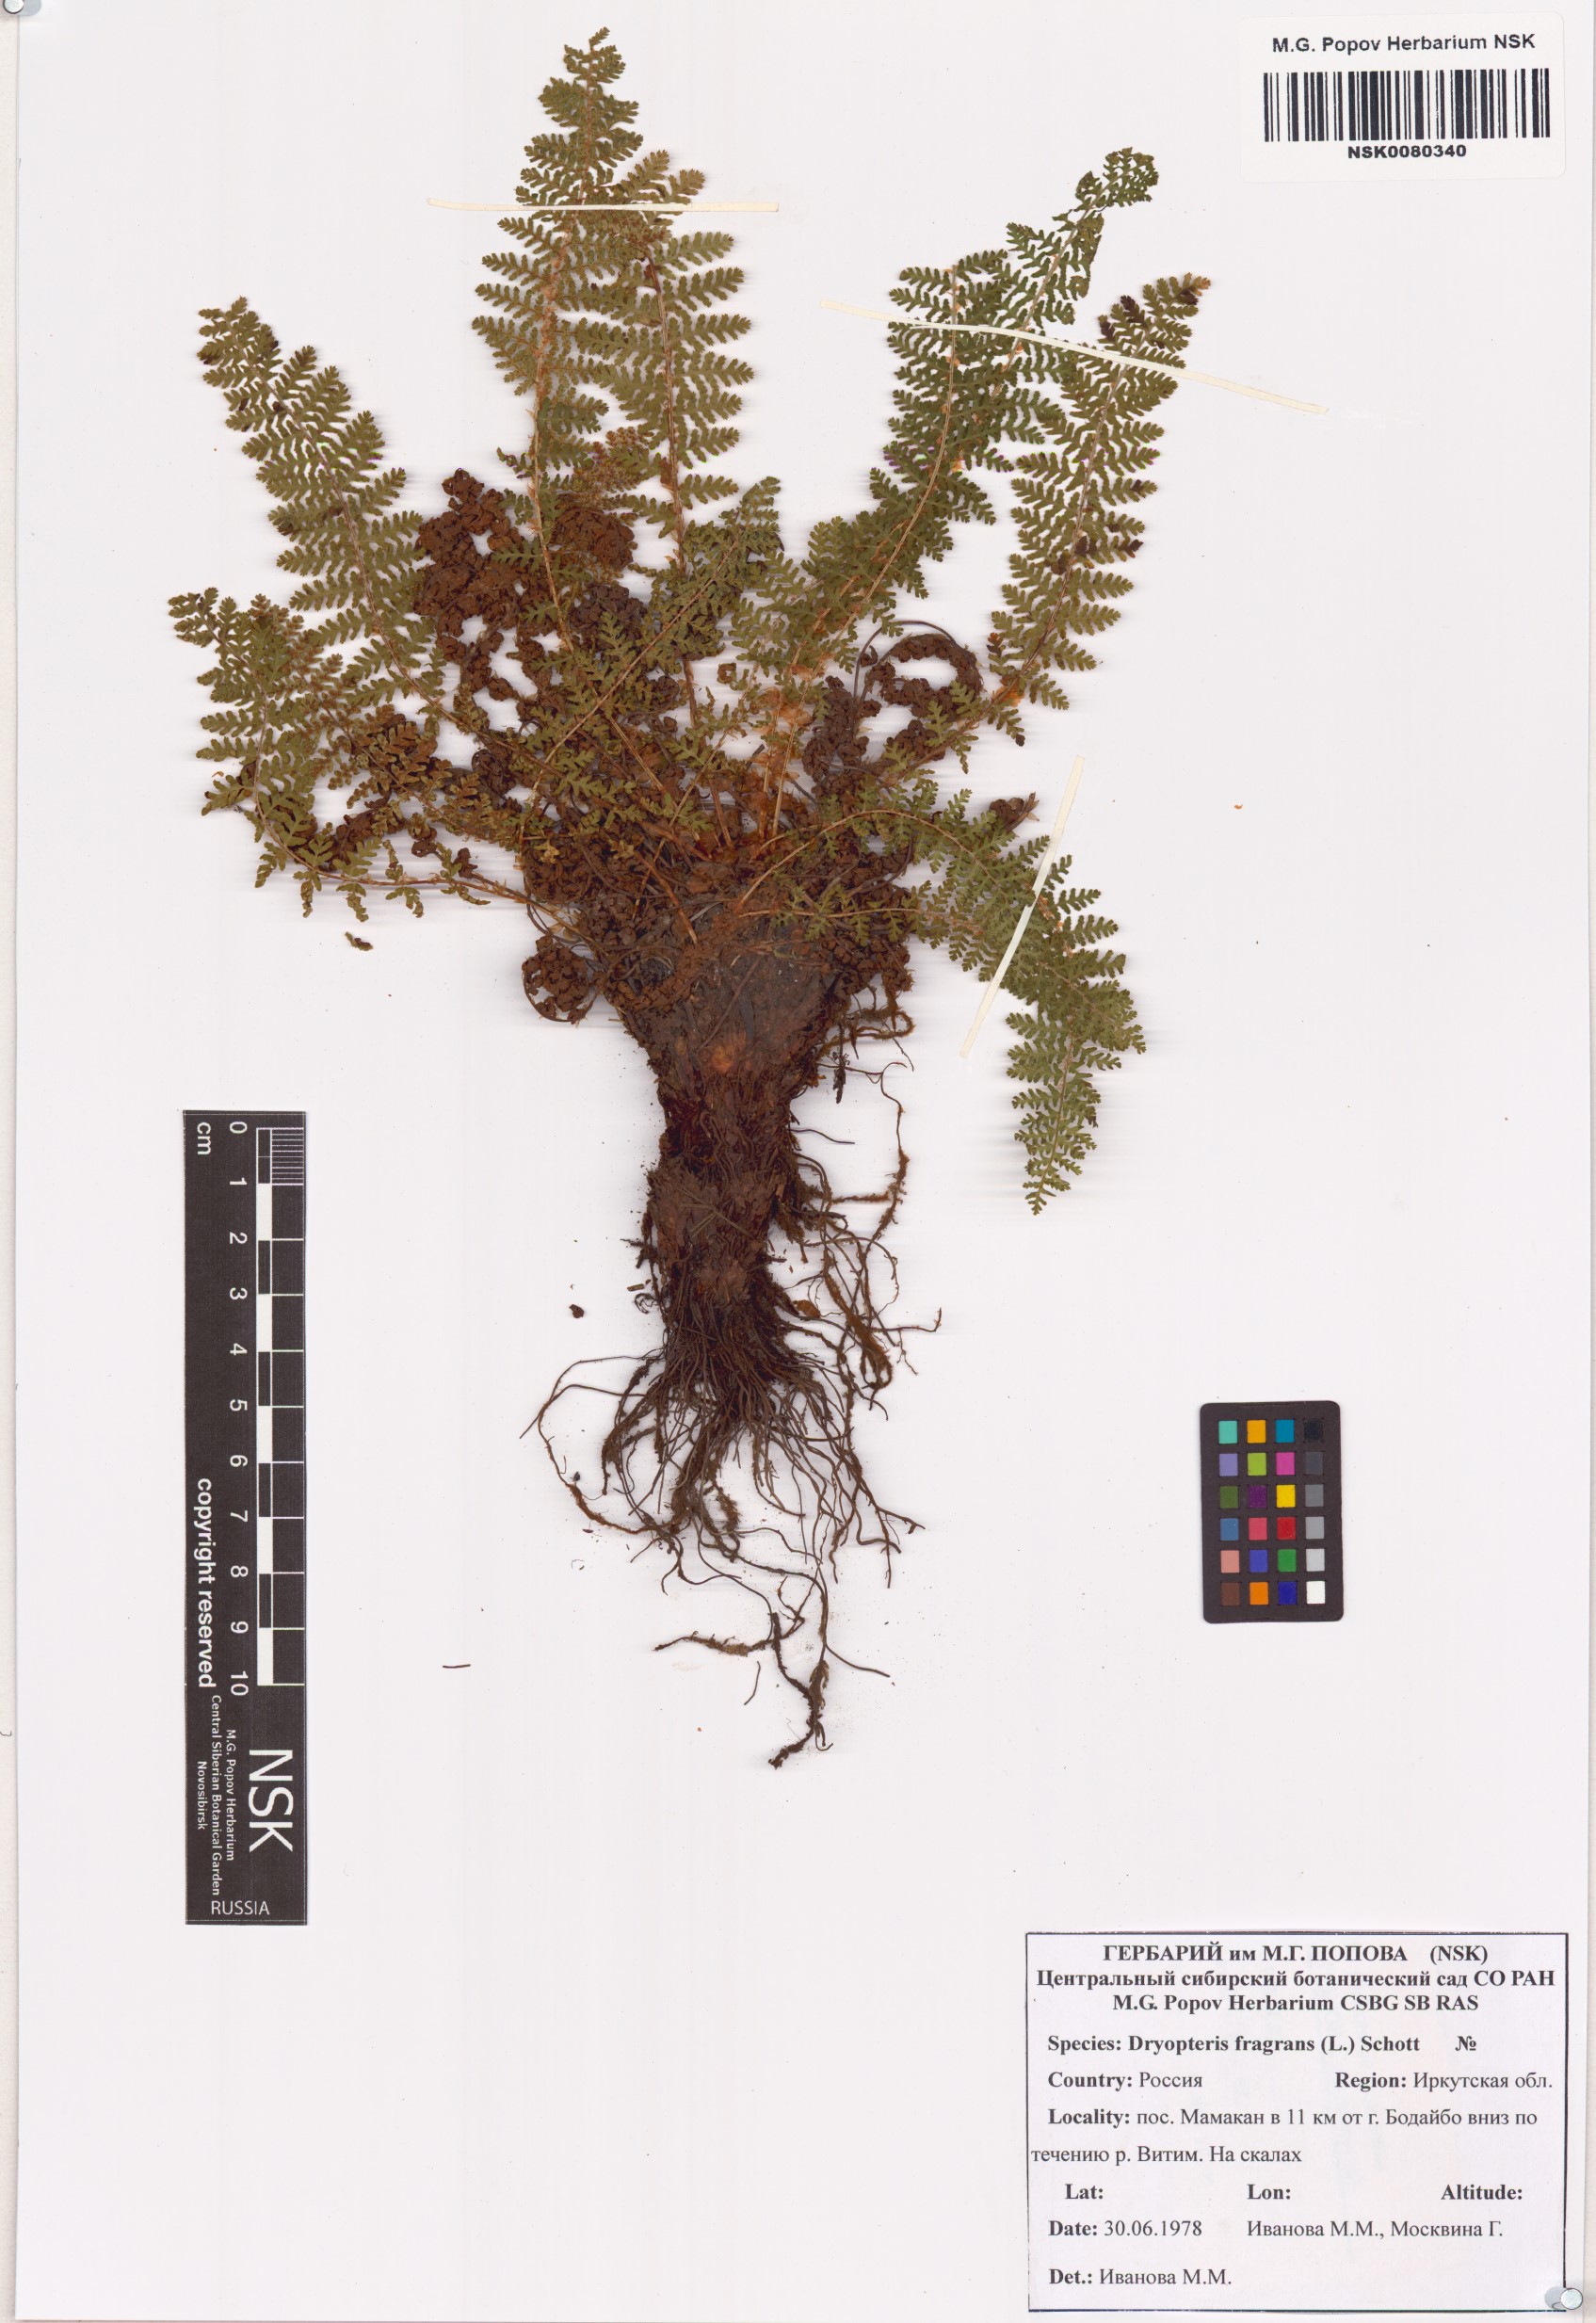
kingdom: Plantae
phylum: Tracheophyta
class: Polypodiopsida
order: Polypodiales
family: Dryopteridaceae
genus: Dryopteris
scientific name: Dryopteris fragrans
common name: Fragrant wood fern
